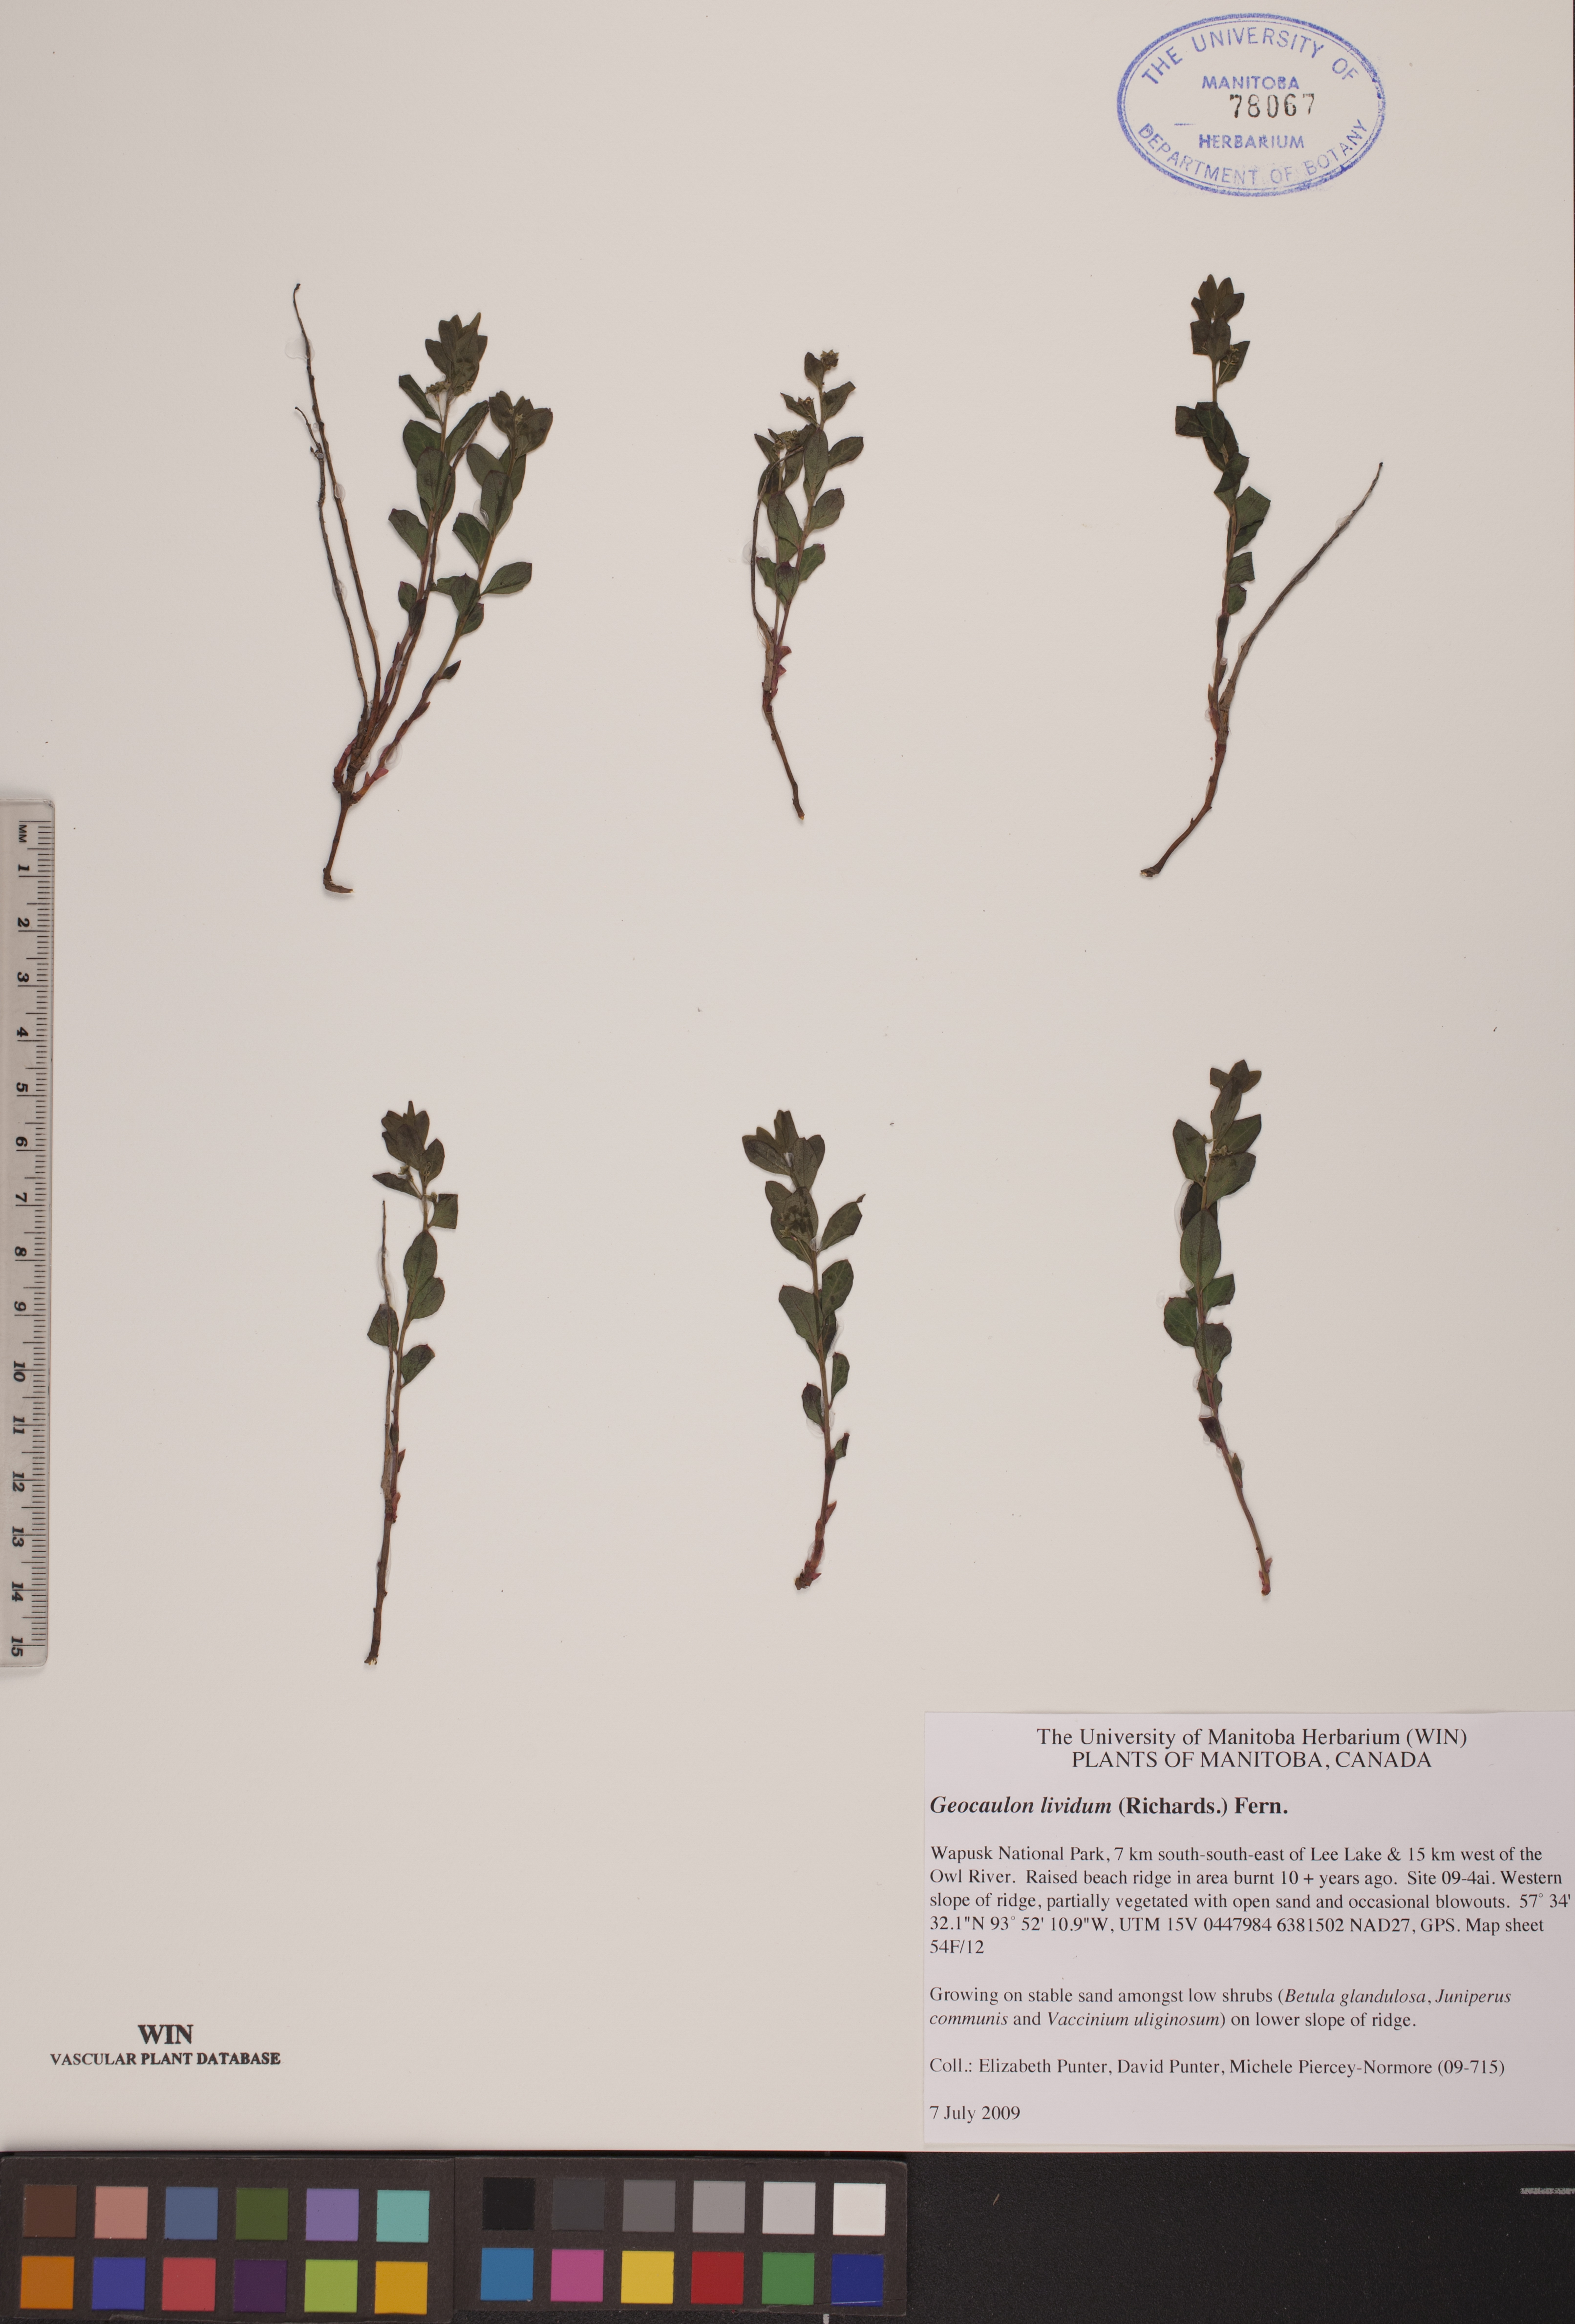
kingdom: Plantae
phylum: Tracheophyta
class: Magnoliopsida
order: Santalales
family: Comandraceae
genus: Geocaulon
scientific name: Geocaulon lividum
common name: Earthberry
